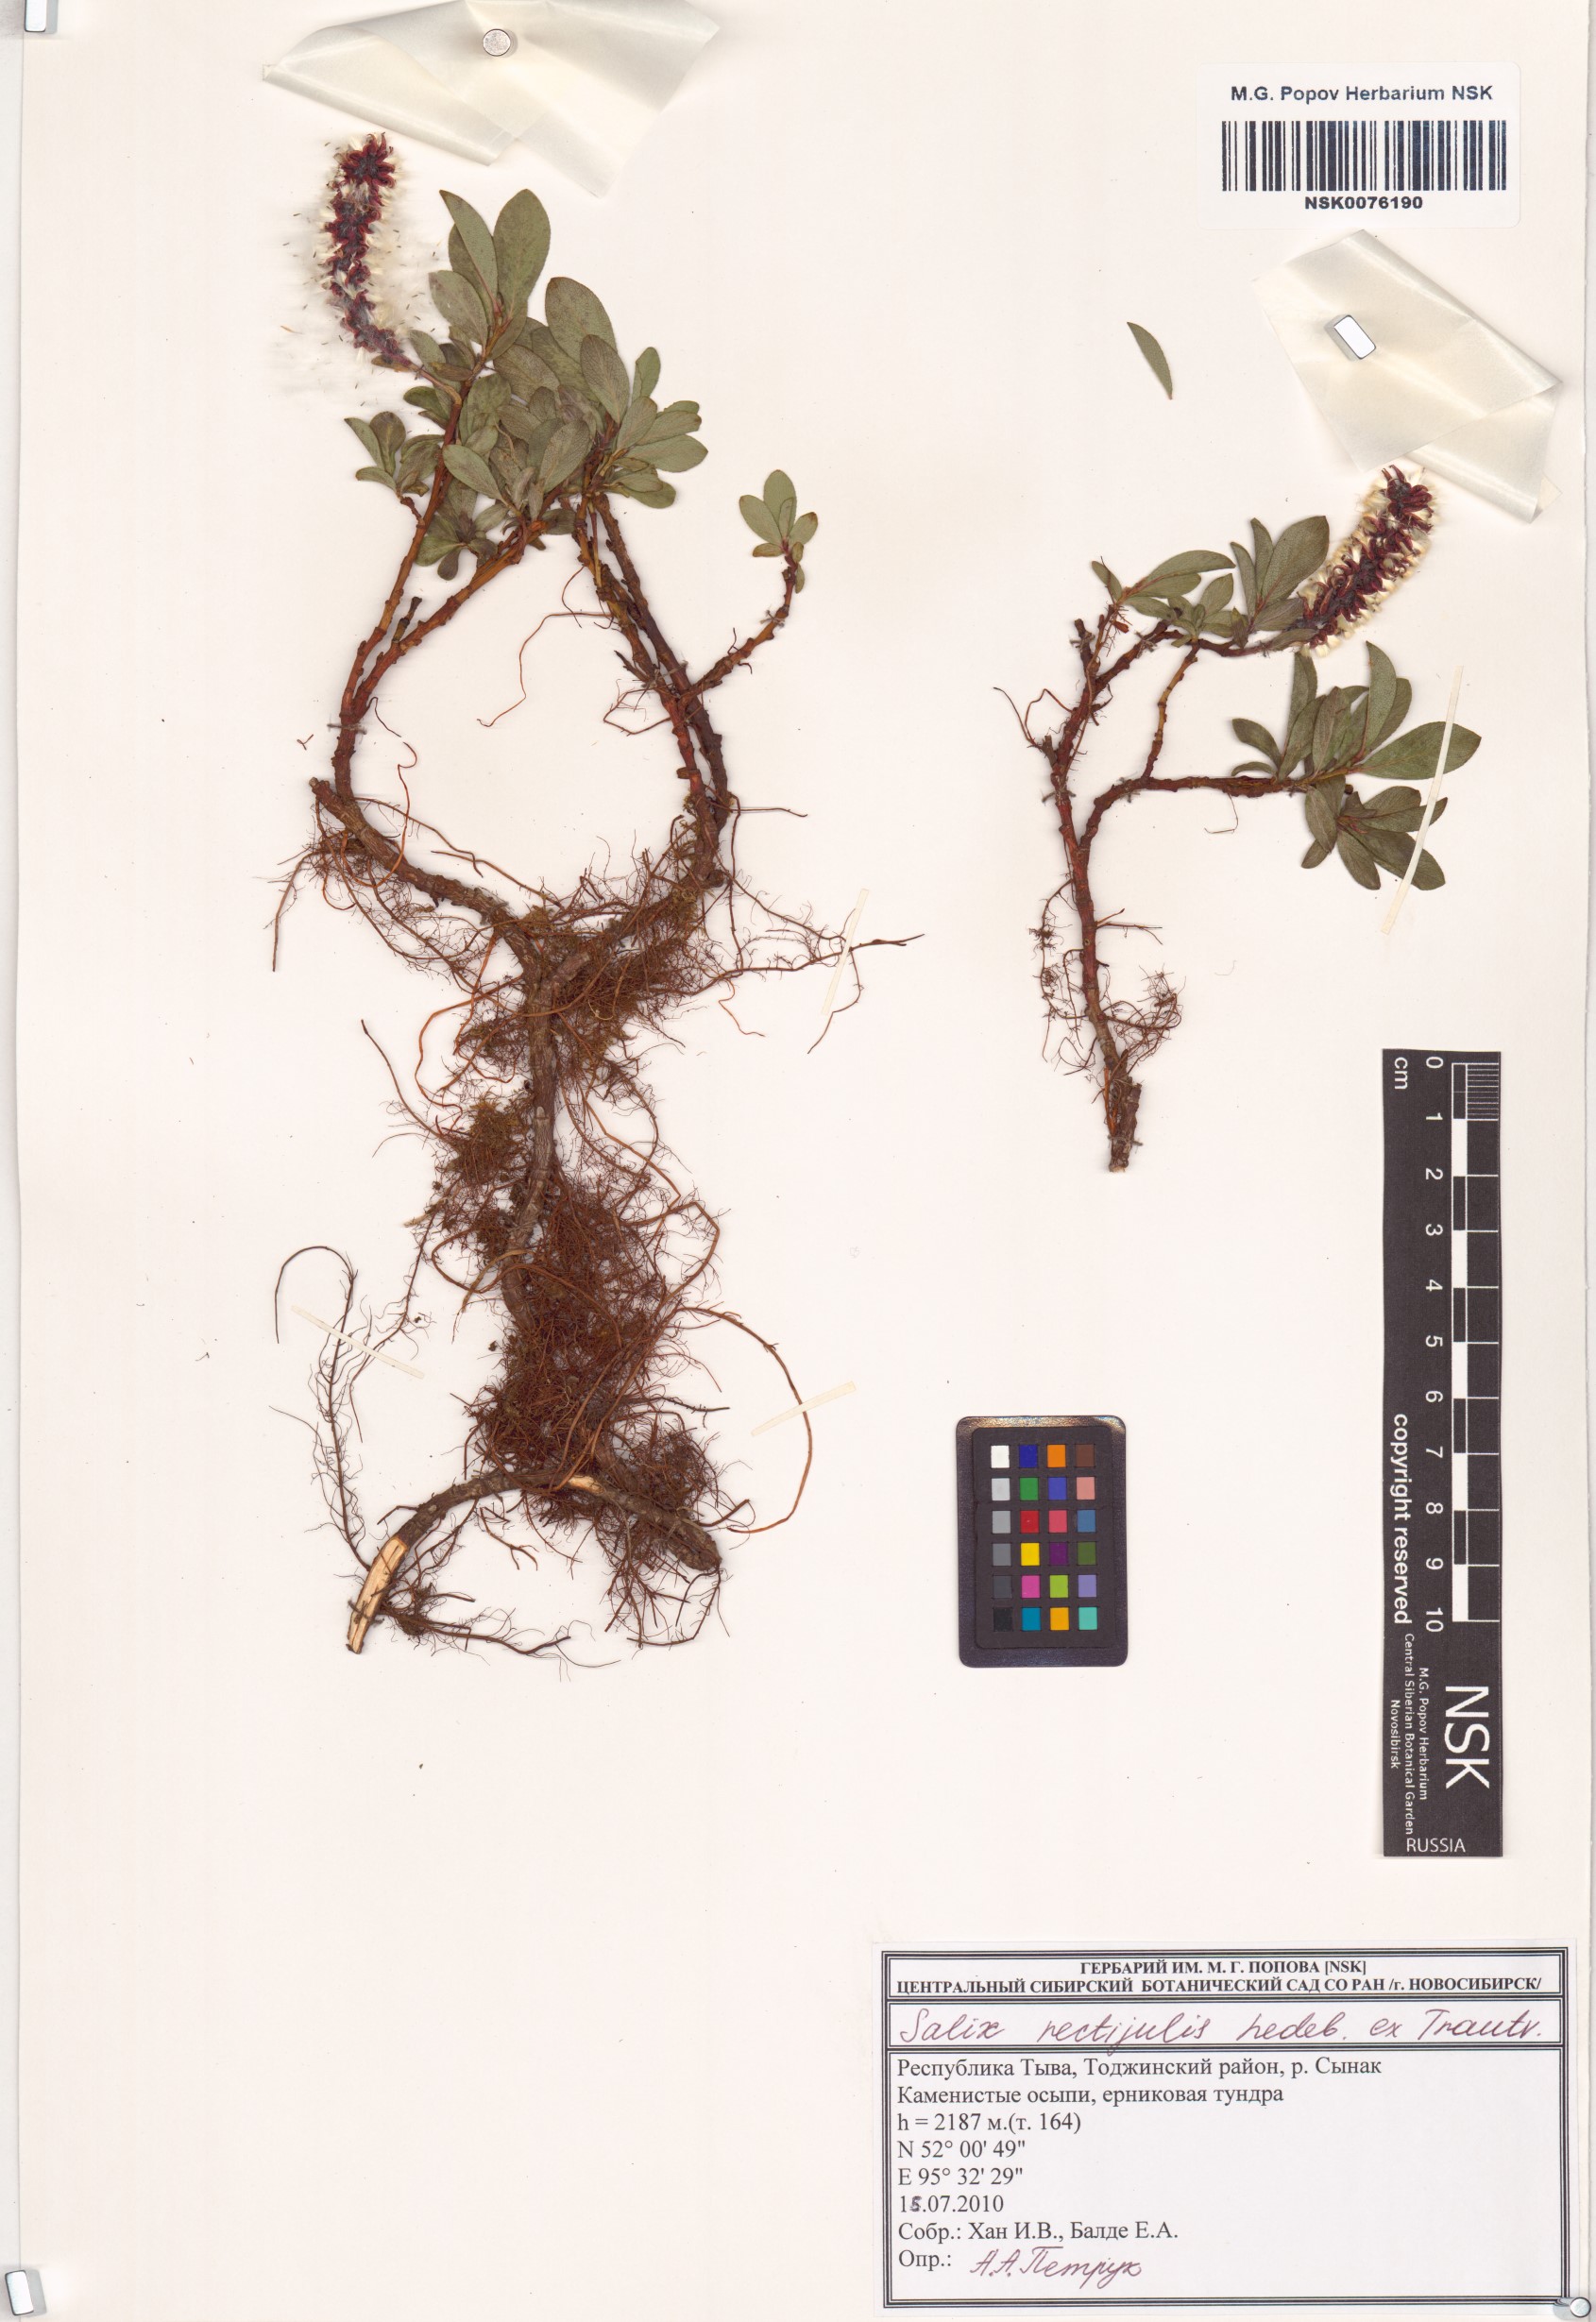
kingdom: Plantae
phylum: Tracheophyta
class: Magnoliopsida
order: Malpighiales
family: Salicaceae
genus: Salix
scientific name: Salix rectijulis
